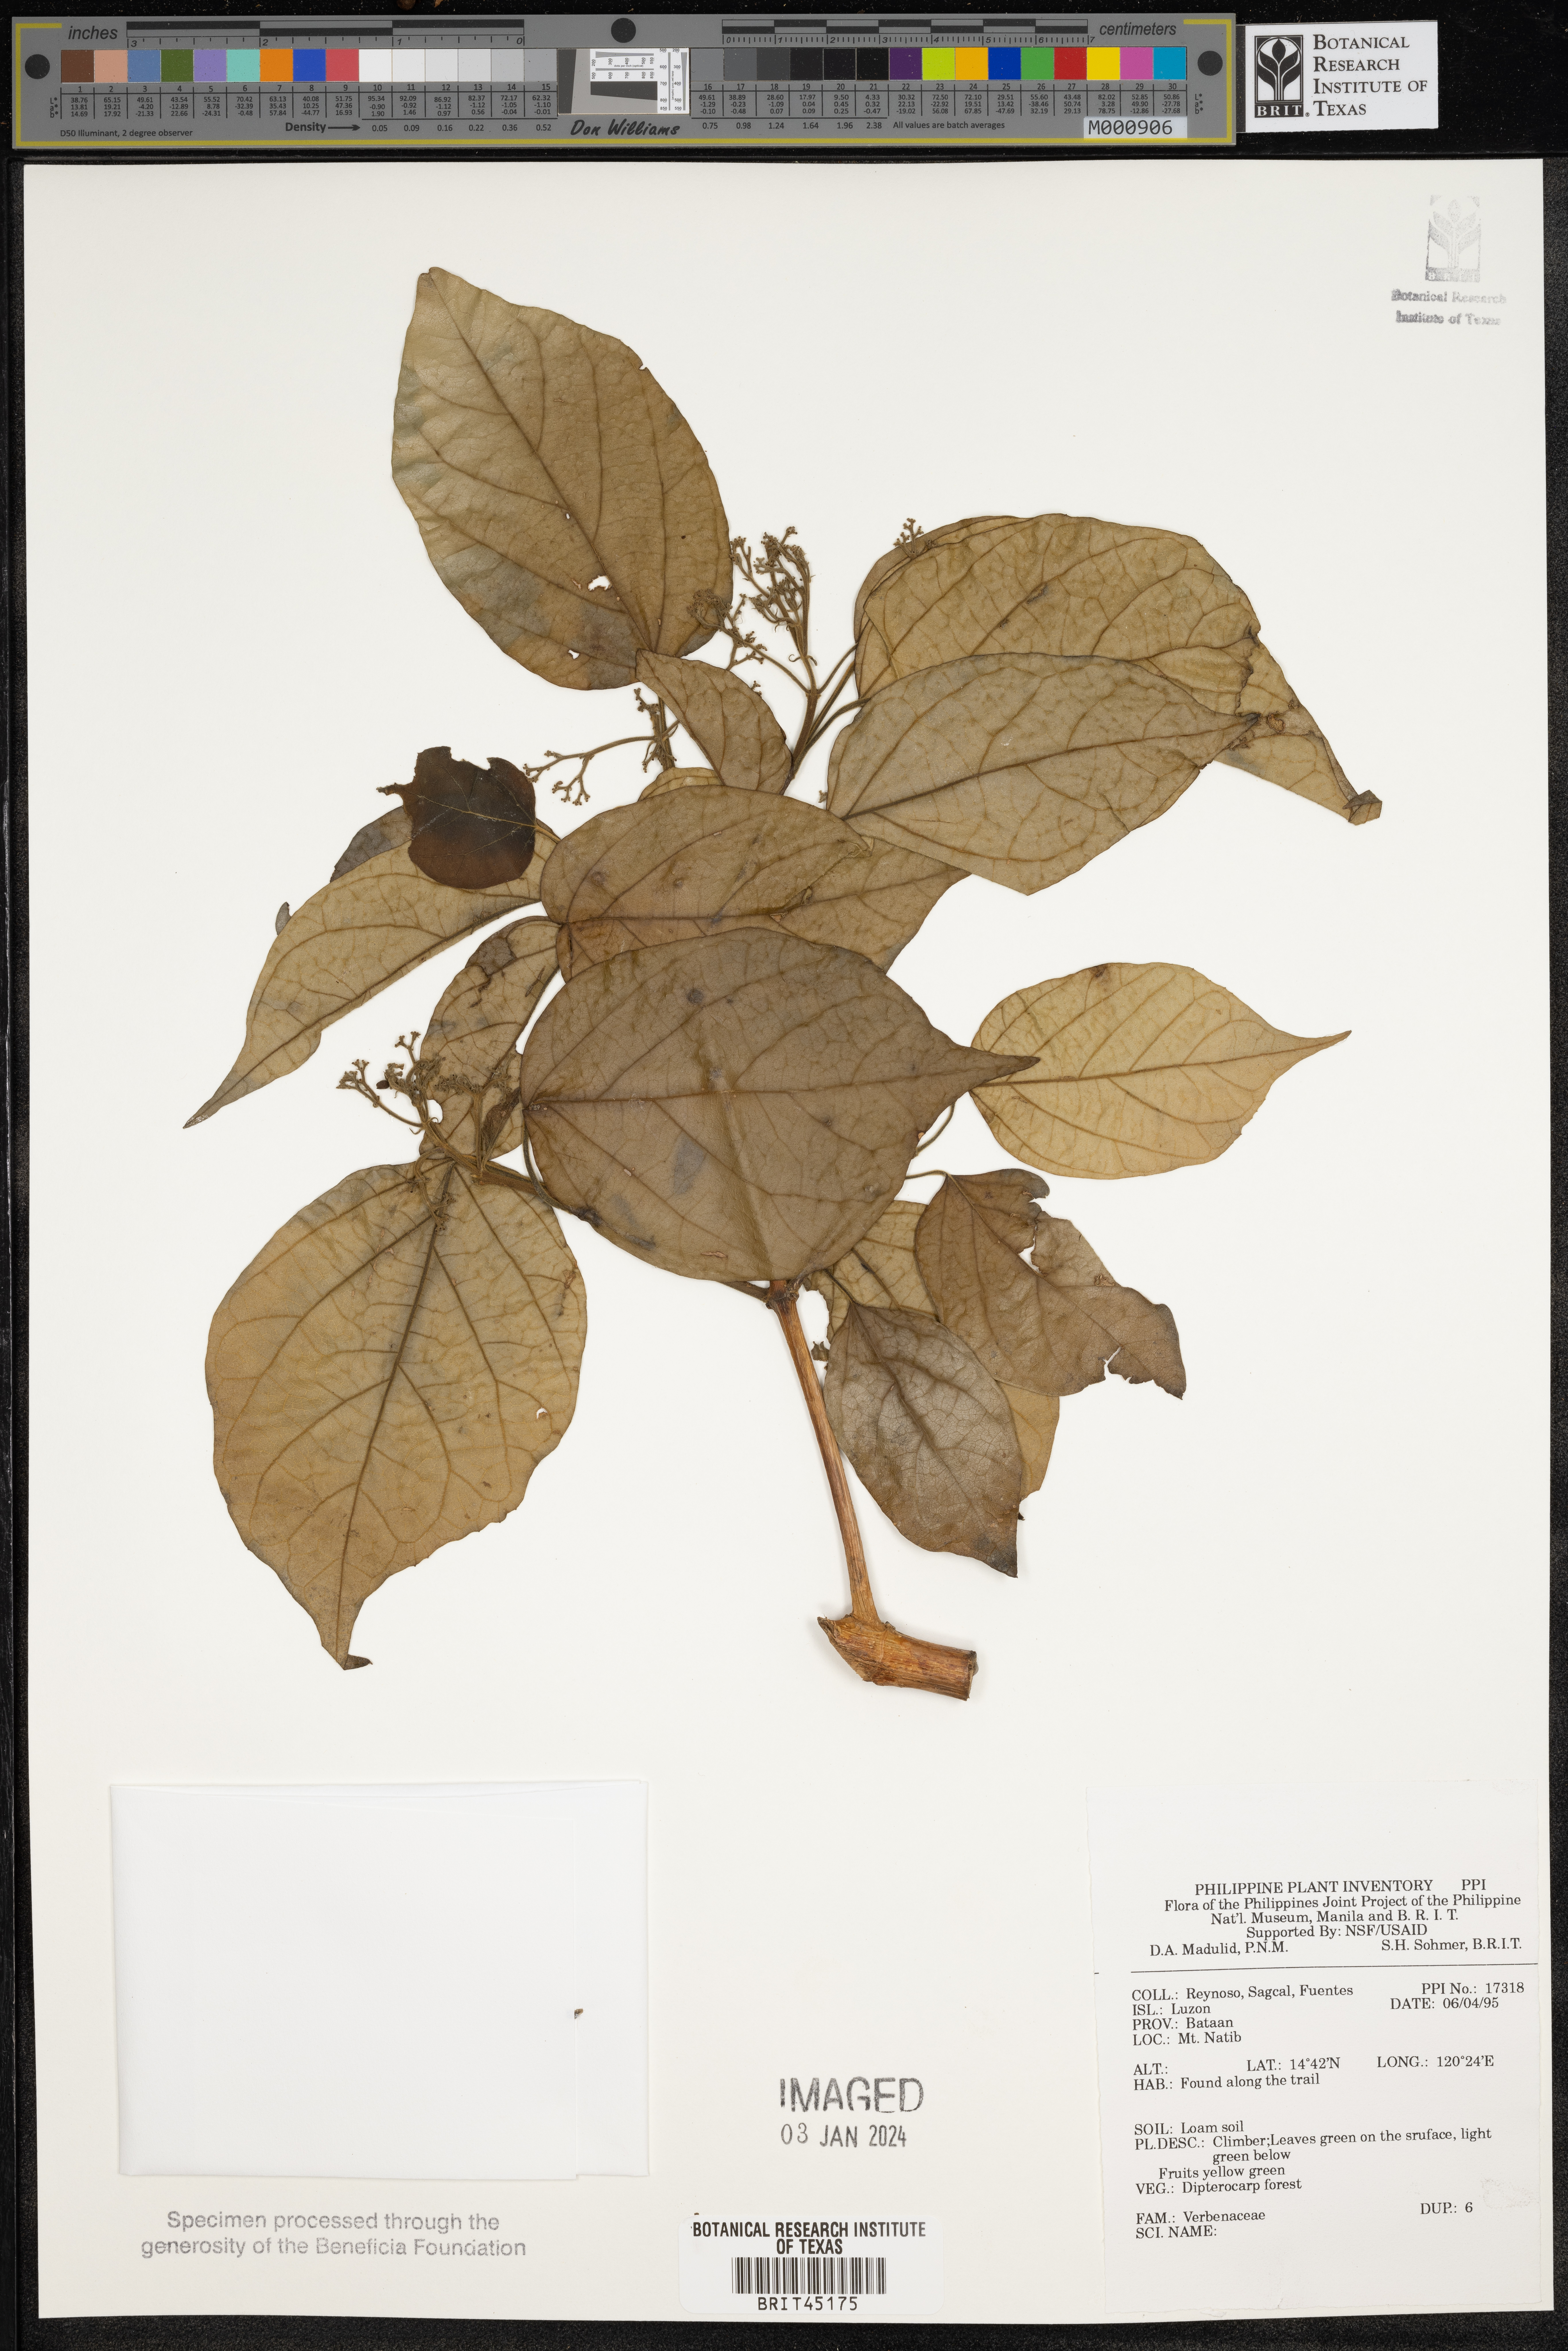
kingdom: Plantae
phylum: Tracheophyta
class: Magnoliopsida
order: Lamiales
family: Verbenaceae
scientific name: Verbenaceae
